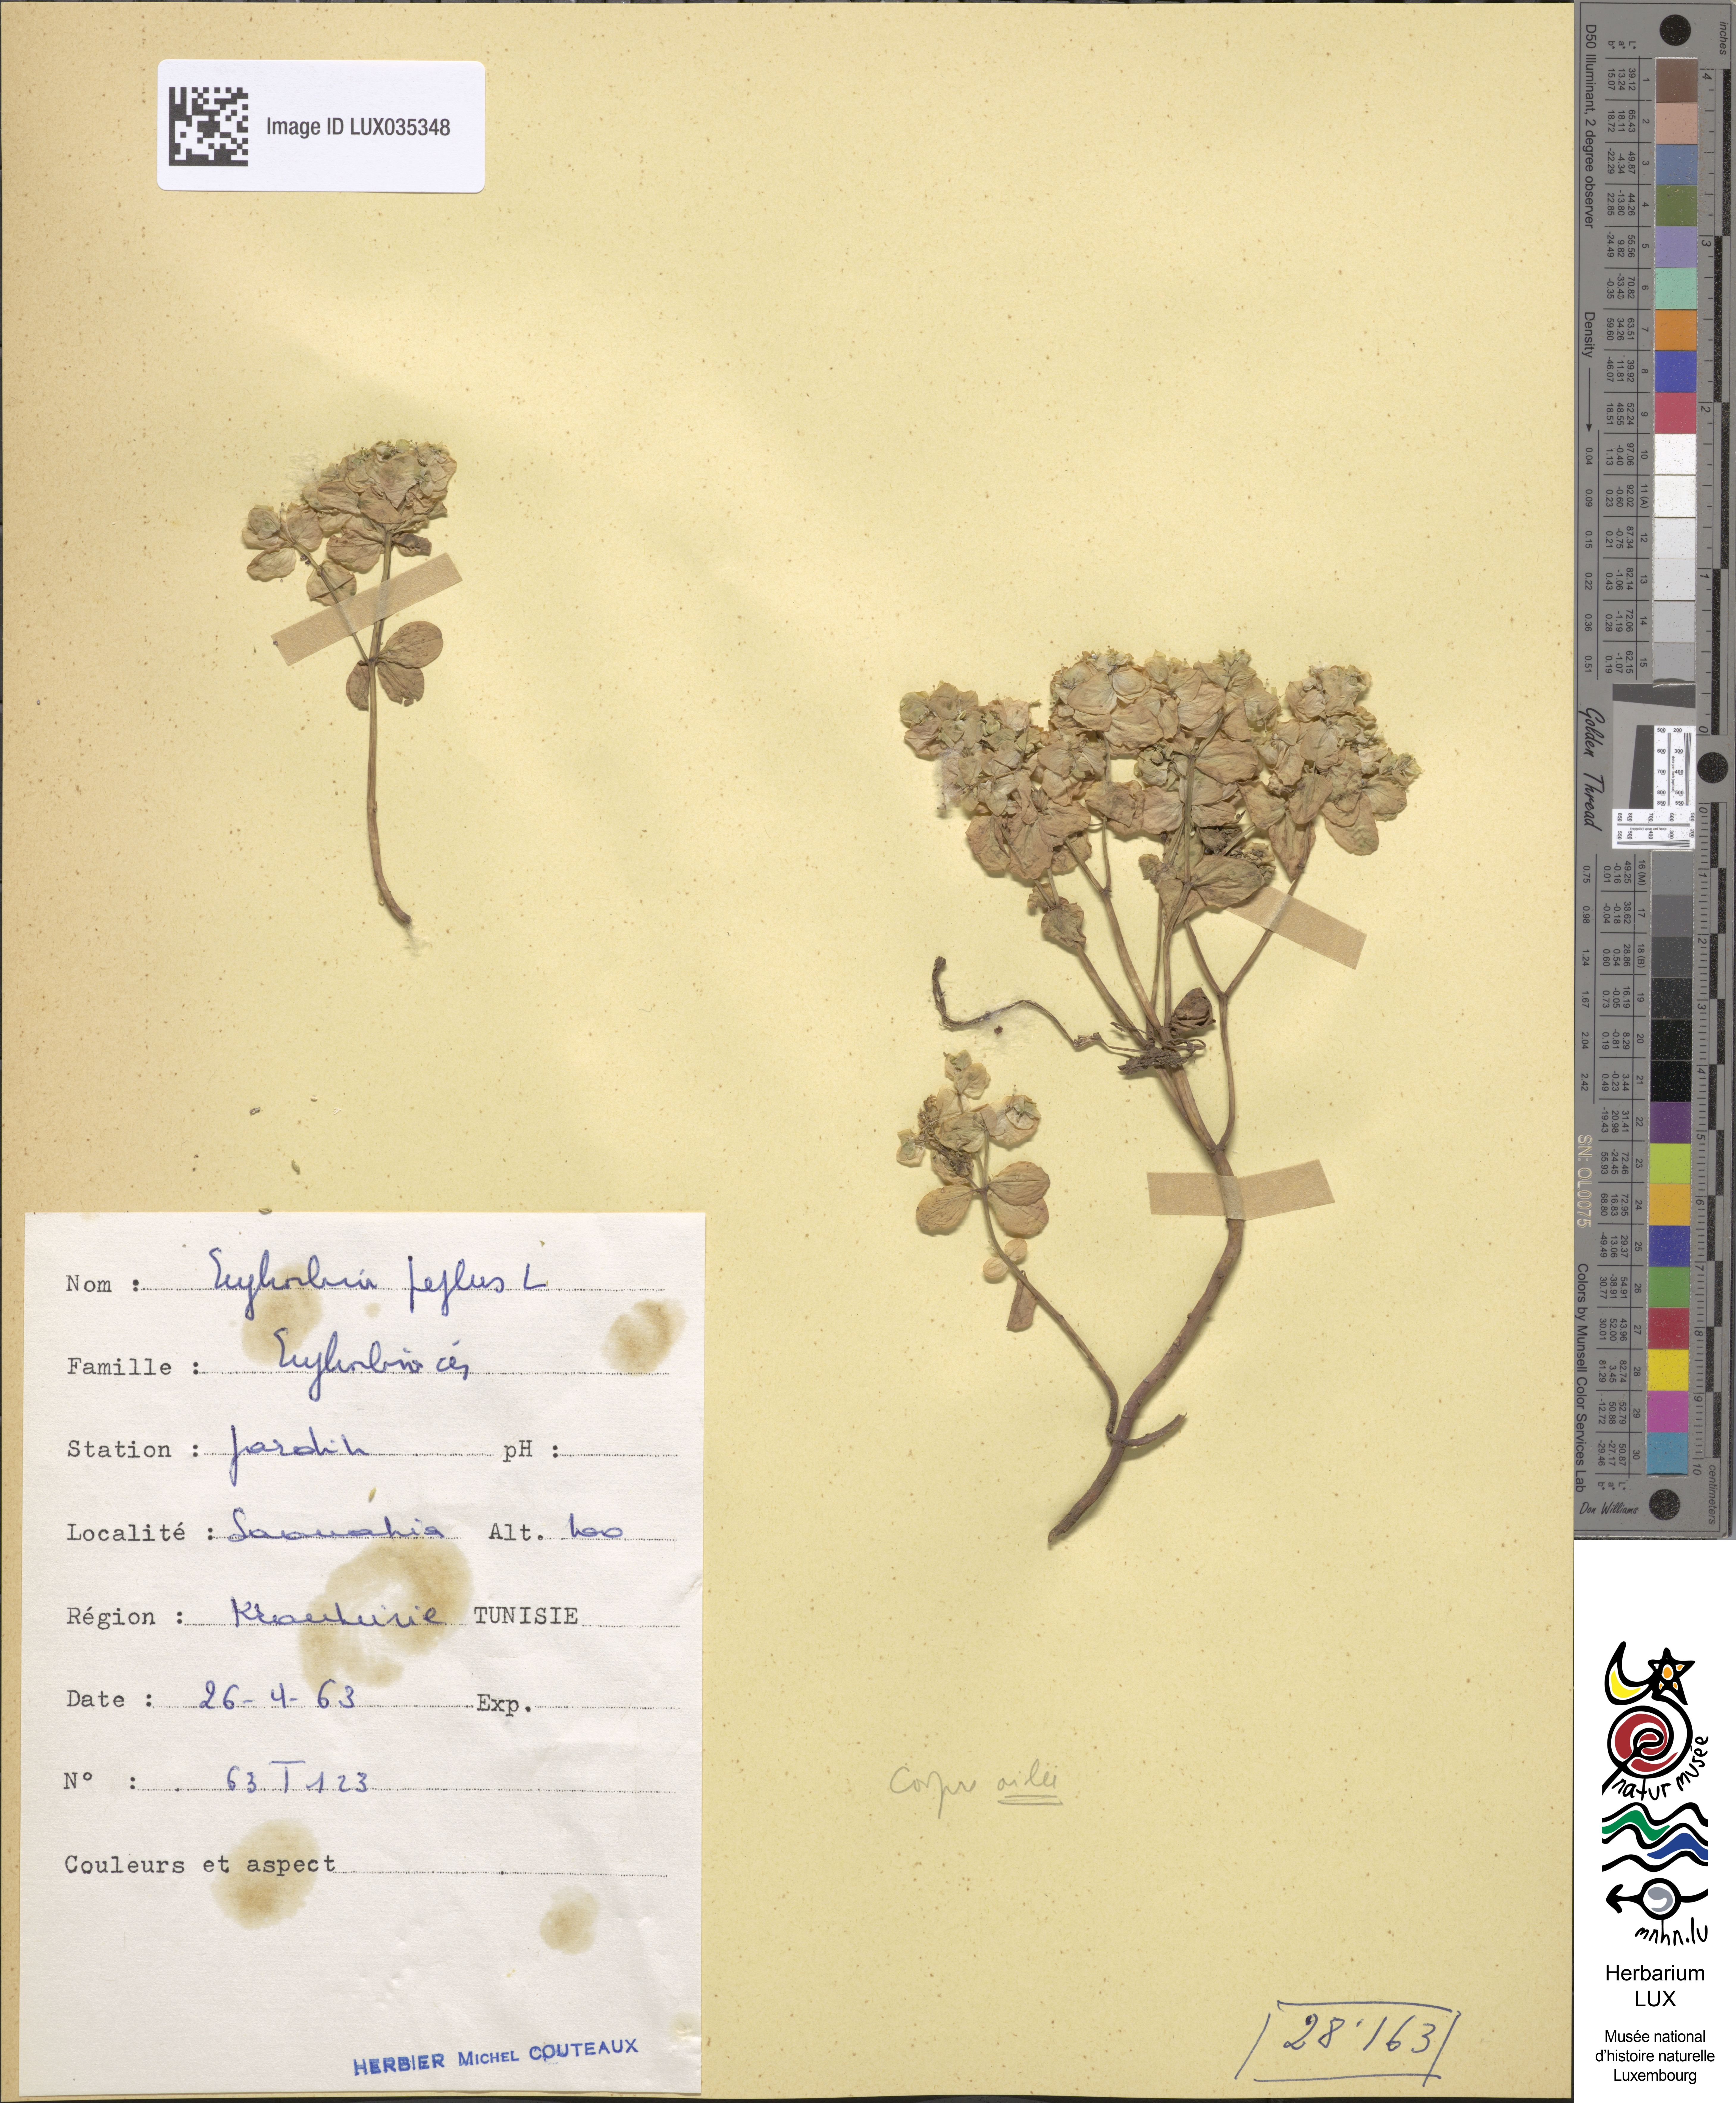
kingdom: Plantae
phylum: Tracheophyta
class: Magnoliopsida
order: Malpighiales
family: Euphorbiaceae
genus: Euphorbia
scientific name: Euphorbia peplus
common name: Petty spurge
